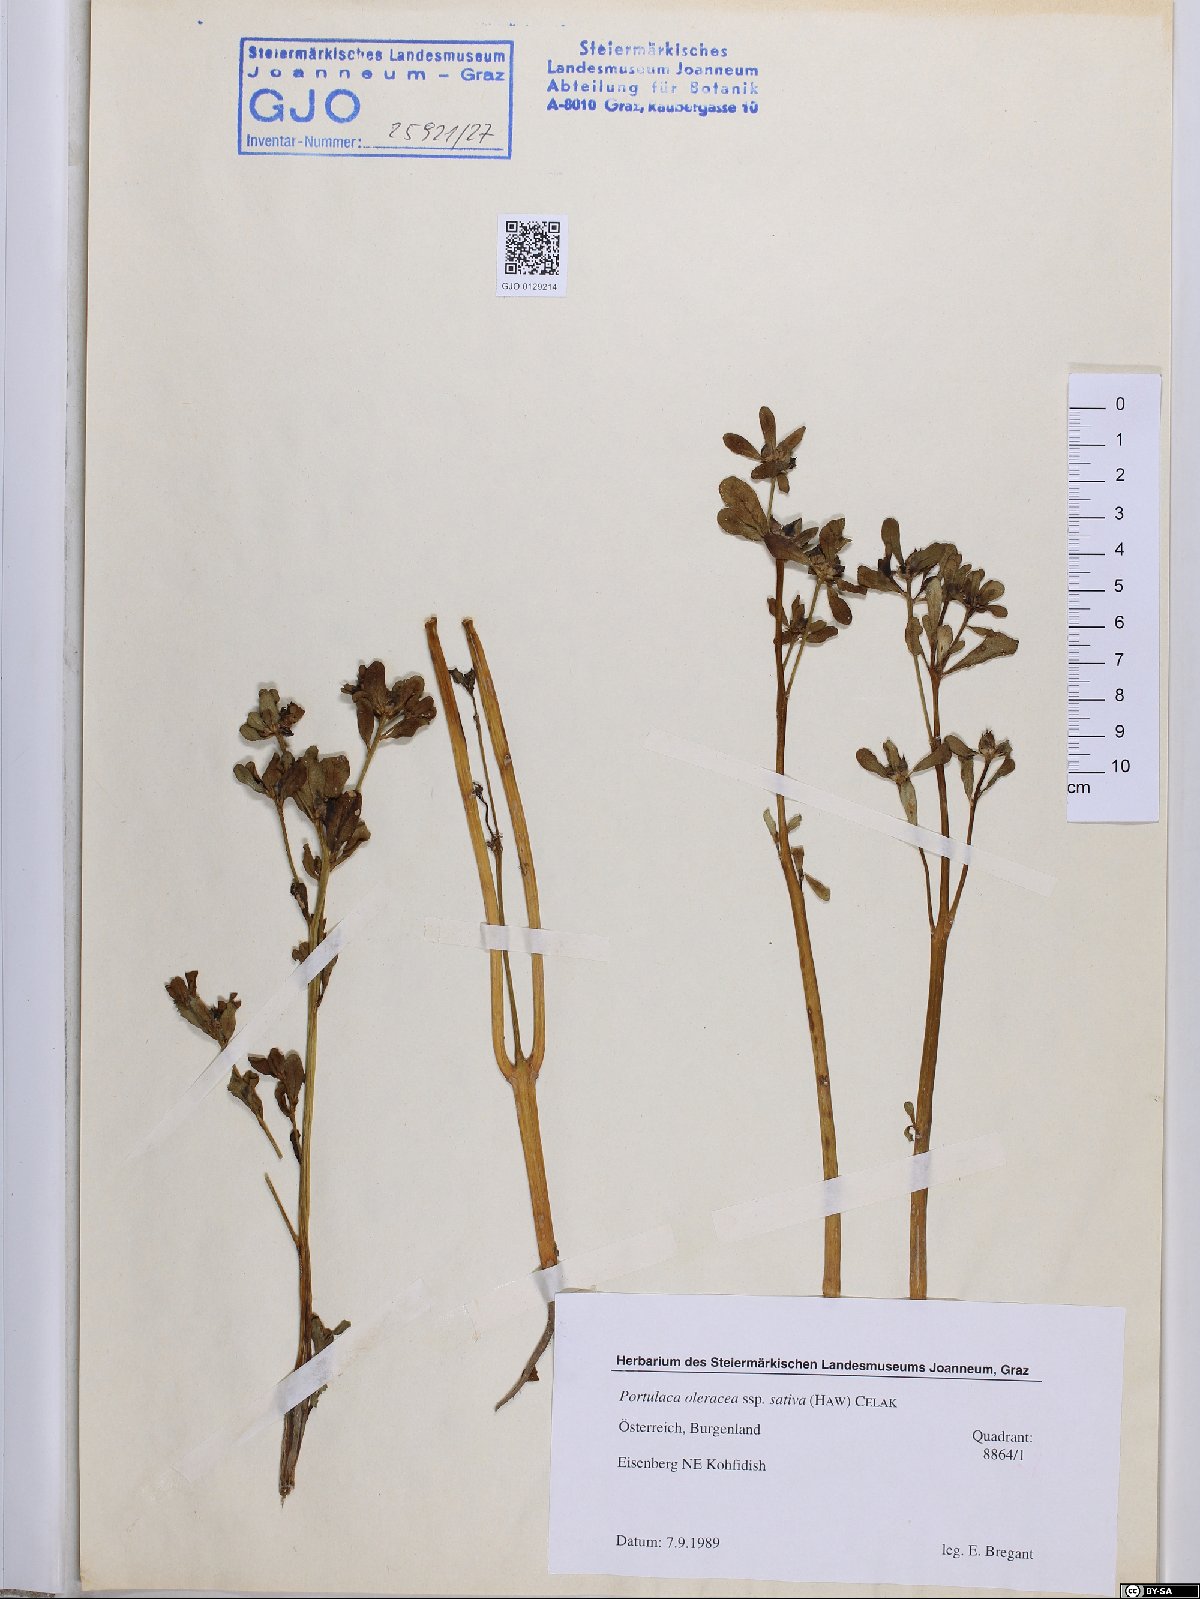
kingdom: Plantae
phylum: Tracheophyta
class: Magnoliopsida
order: Caryophyllales
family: Portulacaceae
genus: Portulaca
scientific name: Portulaca sativa
